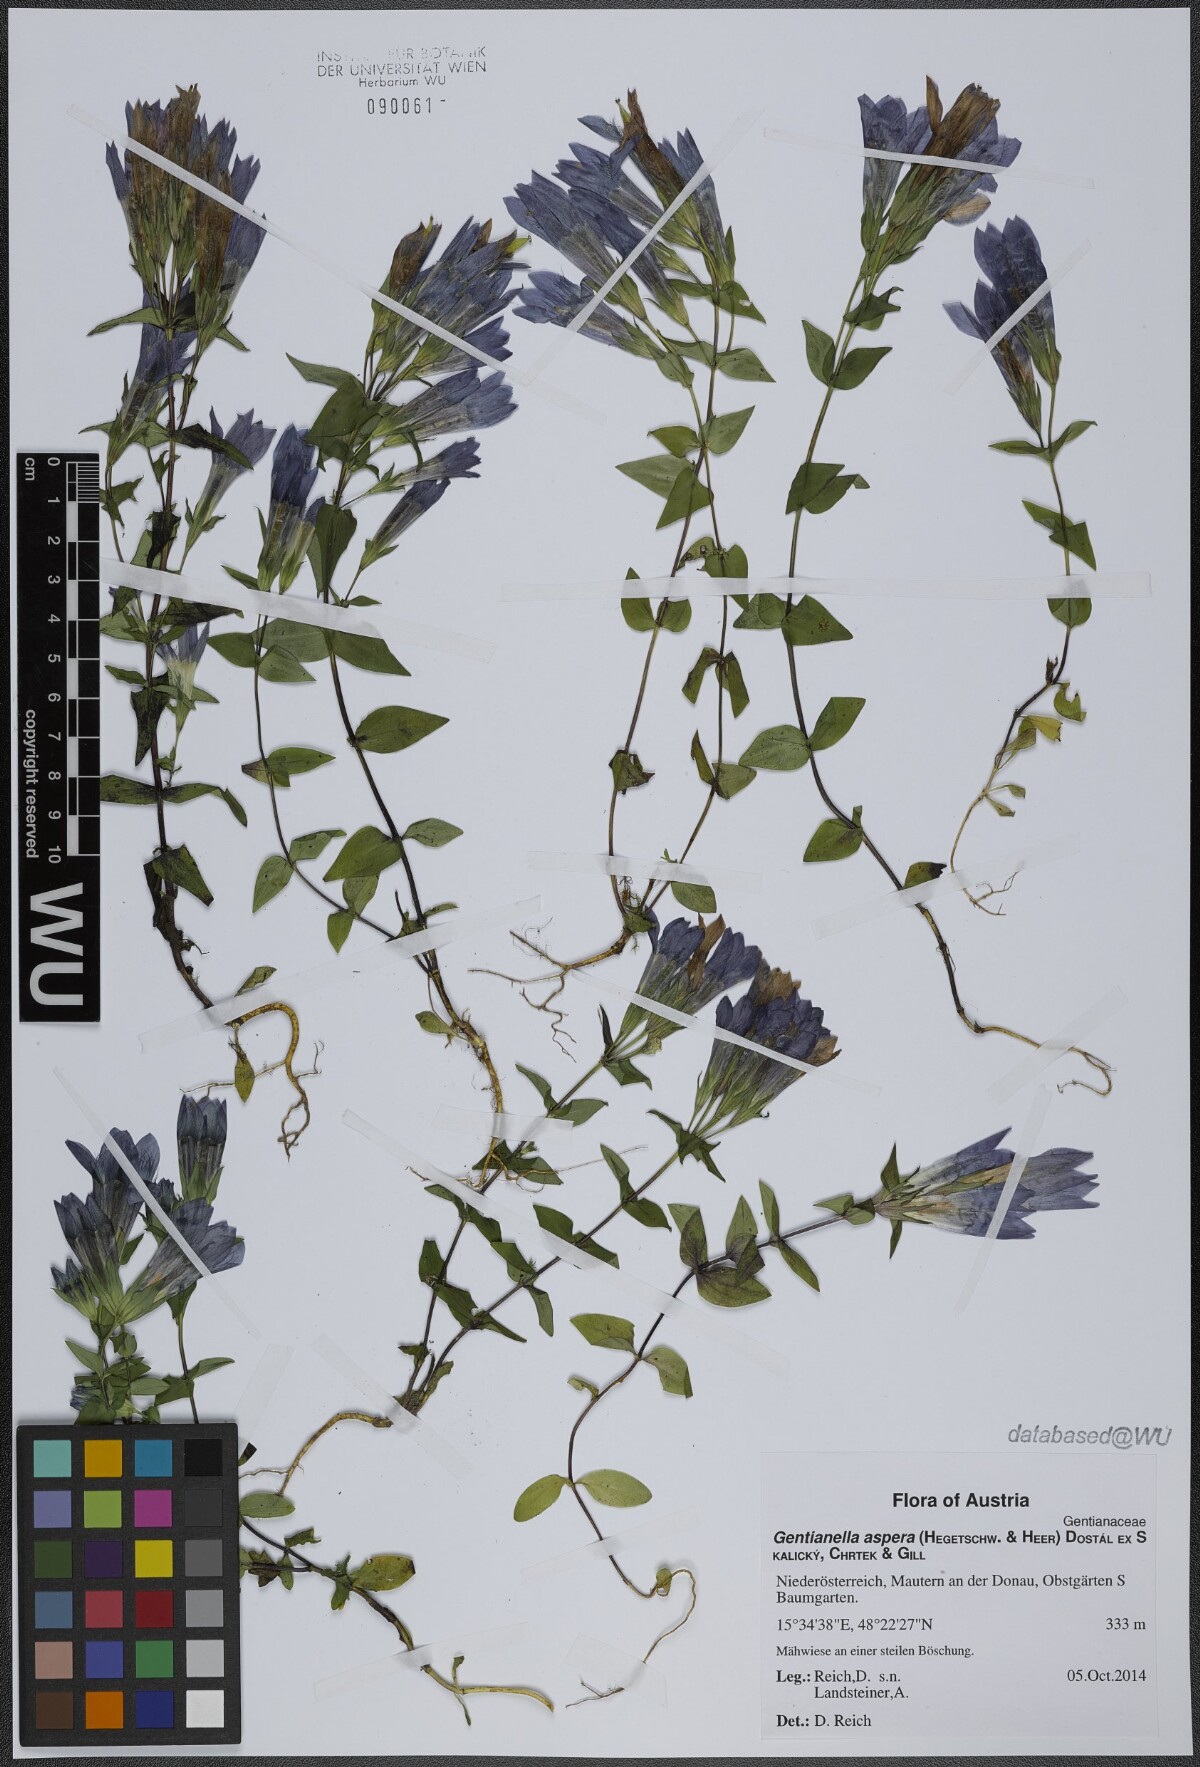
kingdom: Plantae
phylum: Tracheophyta
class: Magnoliopsida
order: Gentianales
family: Gentianaceae
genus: Gentianella
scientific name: Gentianella obtusifolia
